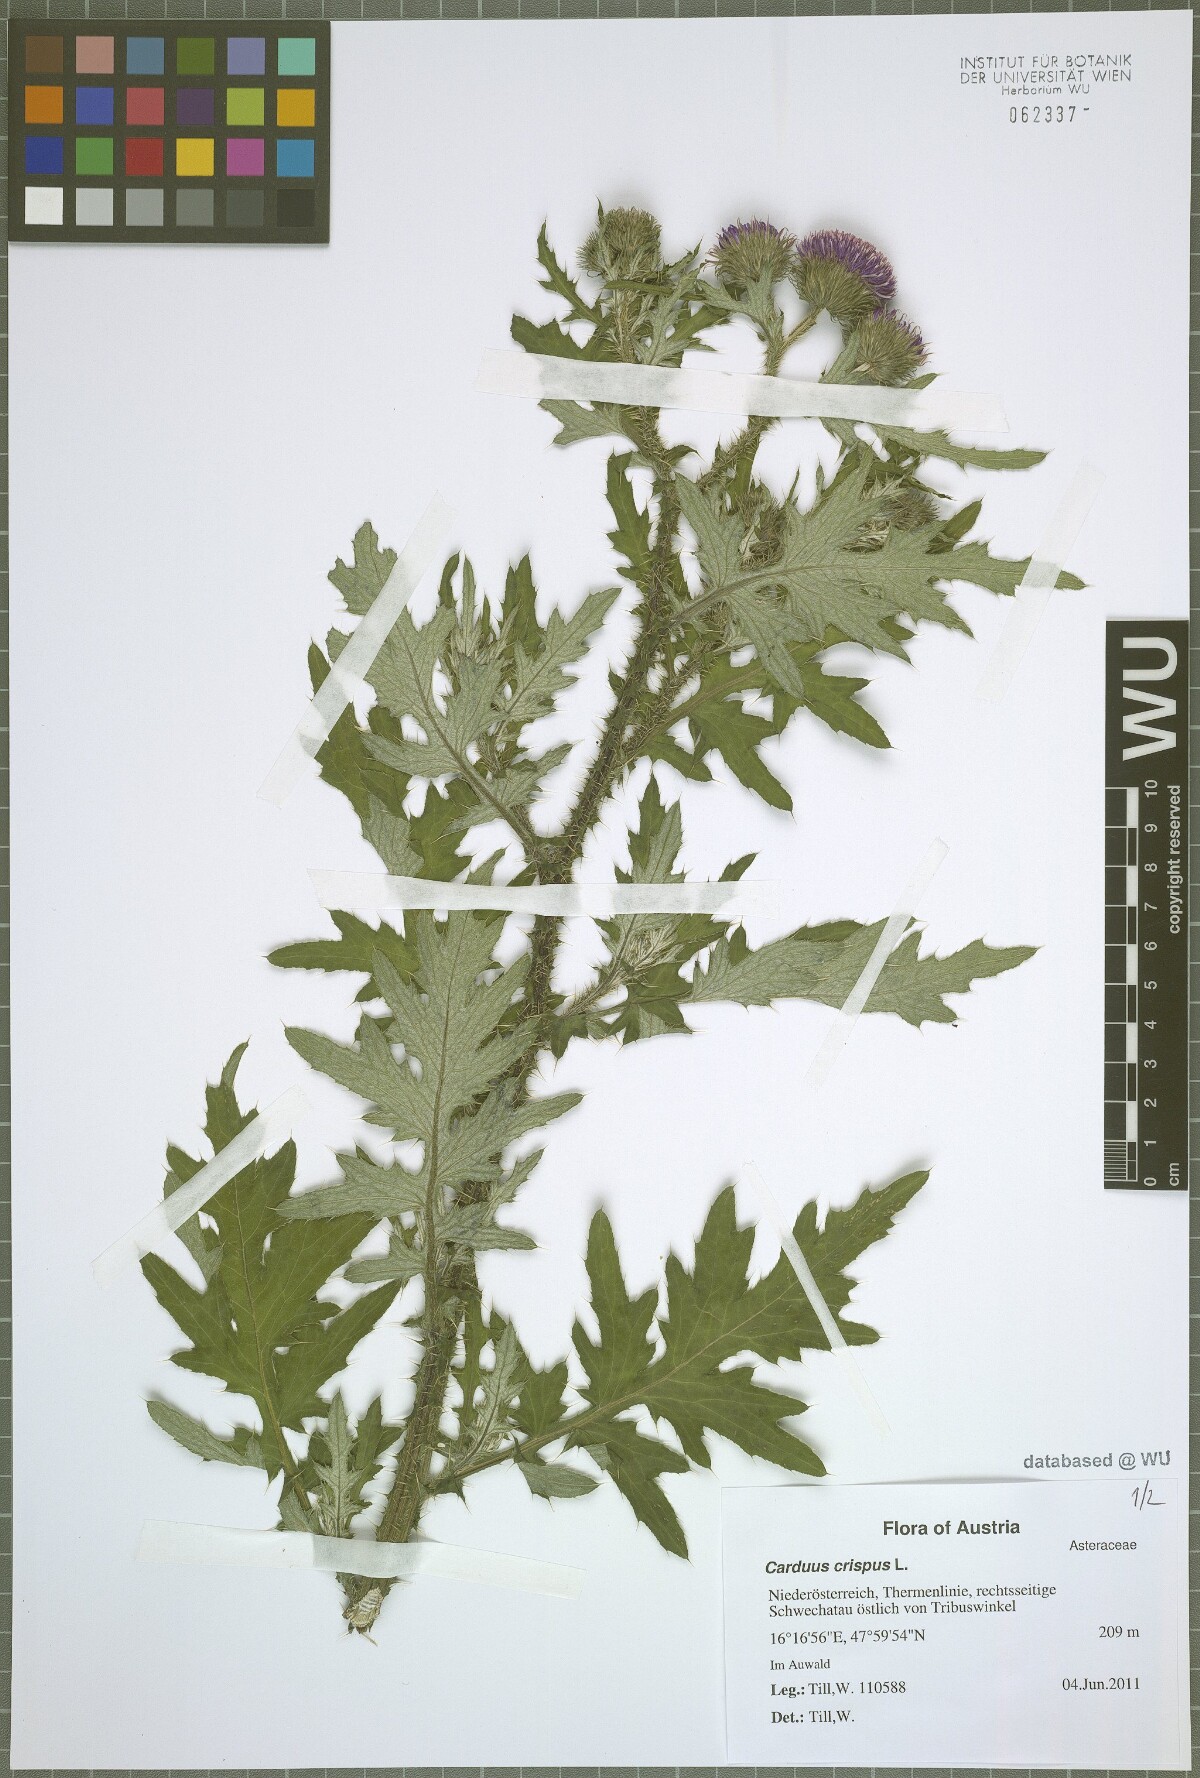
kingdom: Plantae
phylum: Tracheophyta
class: Magnoliopsida
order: Asterales
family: Asteraceae
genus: Carduus
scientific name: Carduus crispus
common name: Welted thistle
